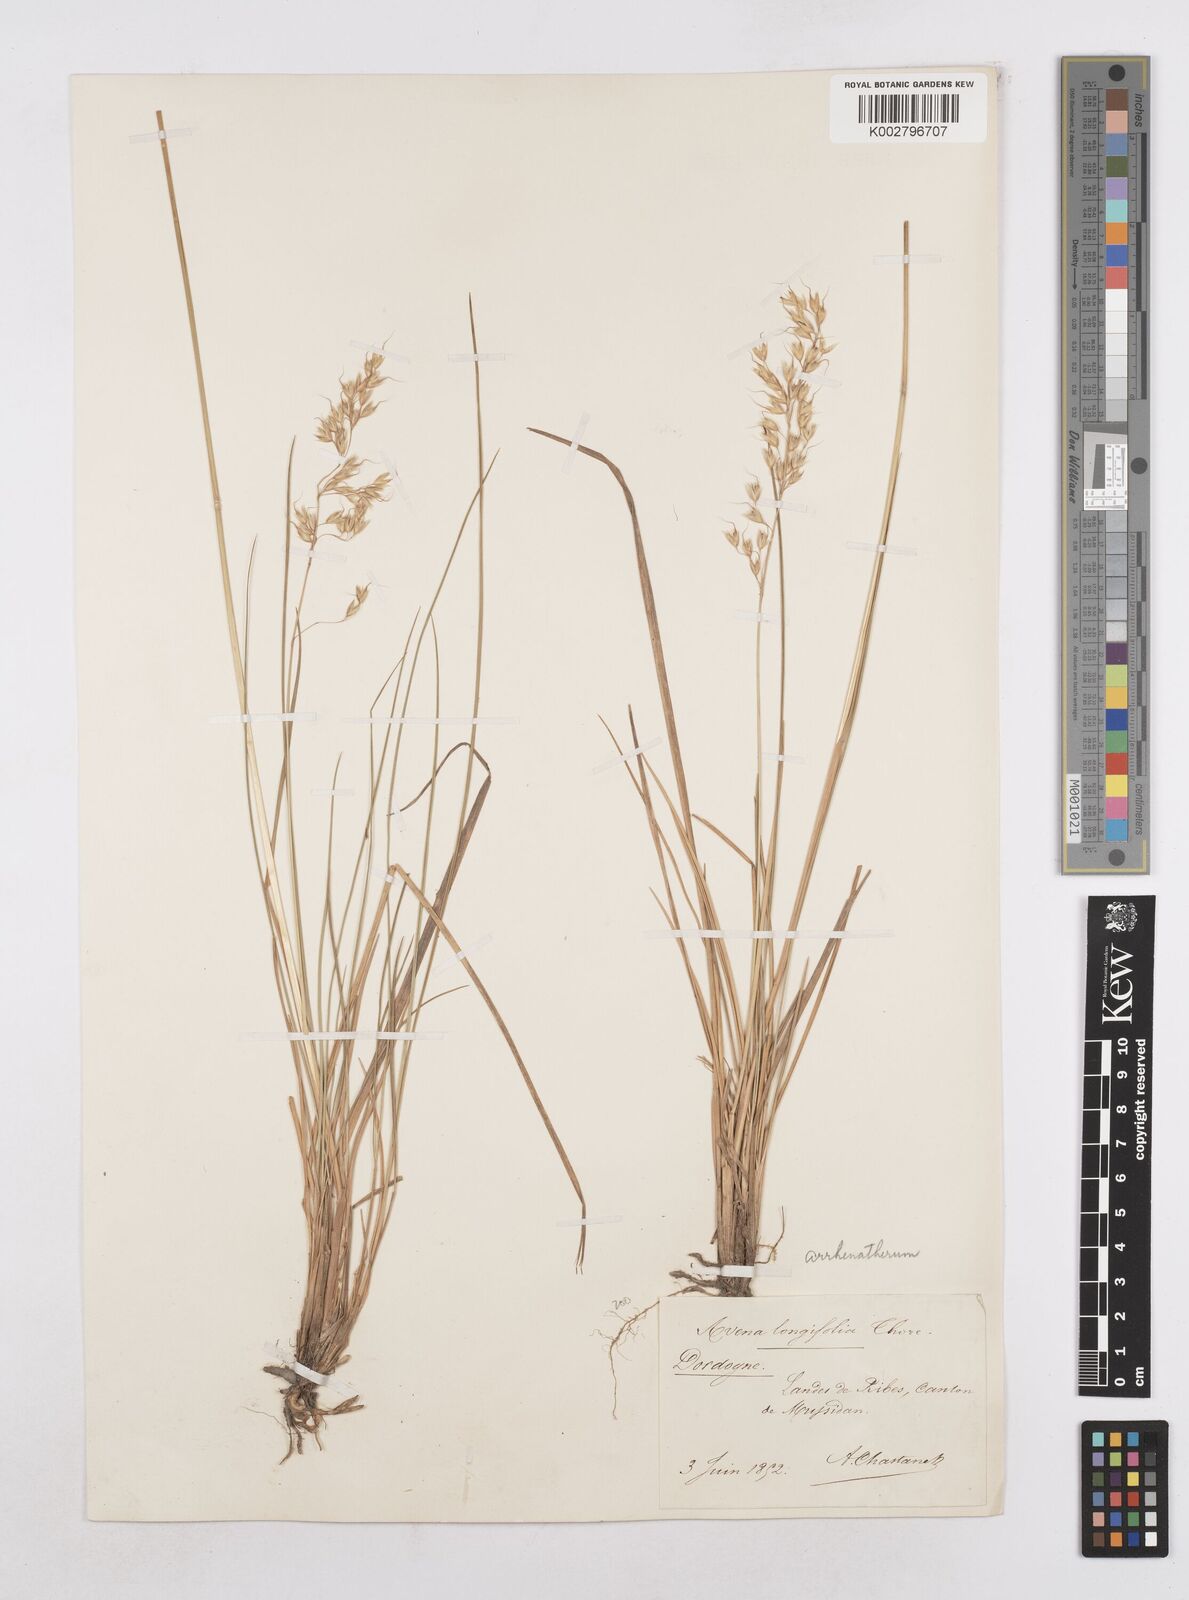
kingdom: Plantae
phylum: Tracheophyta
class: Liliopsida
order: Poales
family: Poaceae
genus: Arrhenatherum
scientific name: Arrhenatherum longifolium
